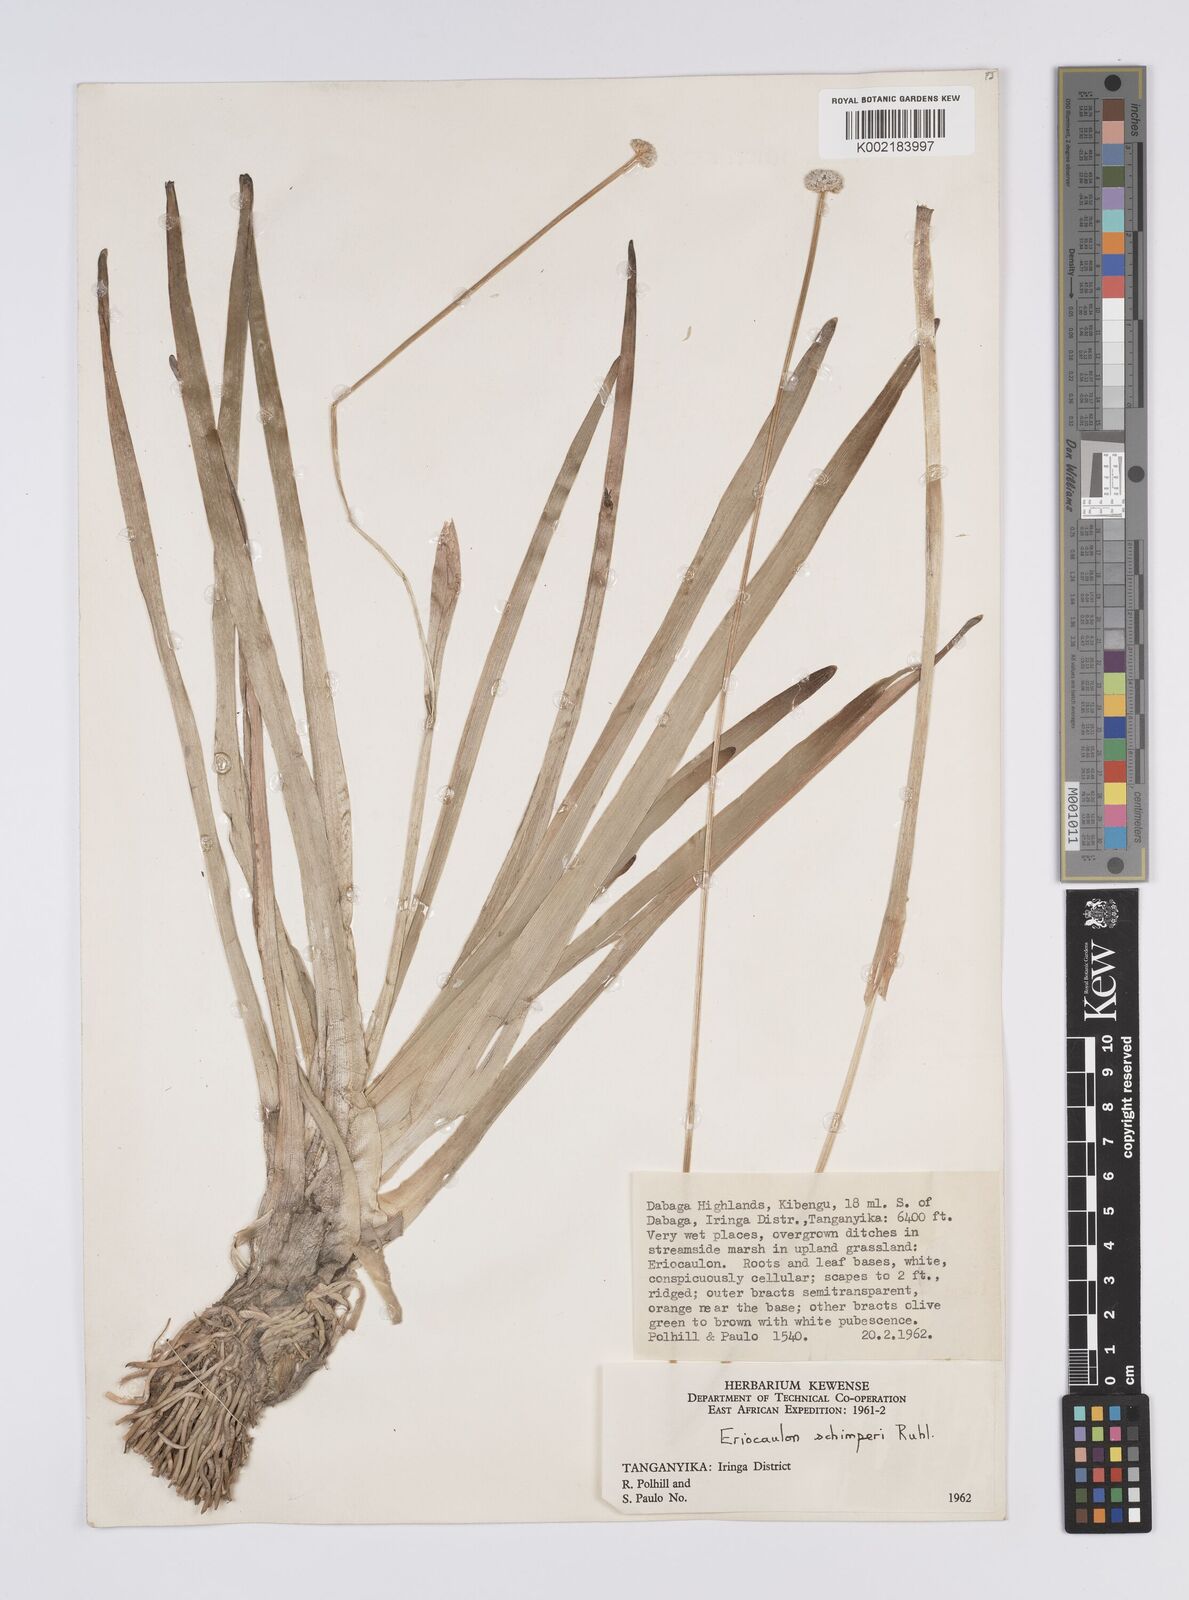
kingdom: Plantae
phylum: Tracheophyta
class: Liliopsida
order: Poales
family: Eriocaulaceae
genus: Eriocaulon
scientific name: Eriocaulon schimperi
